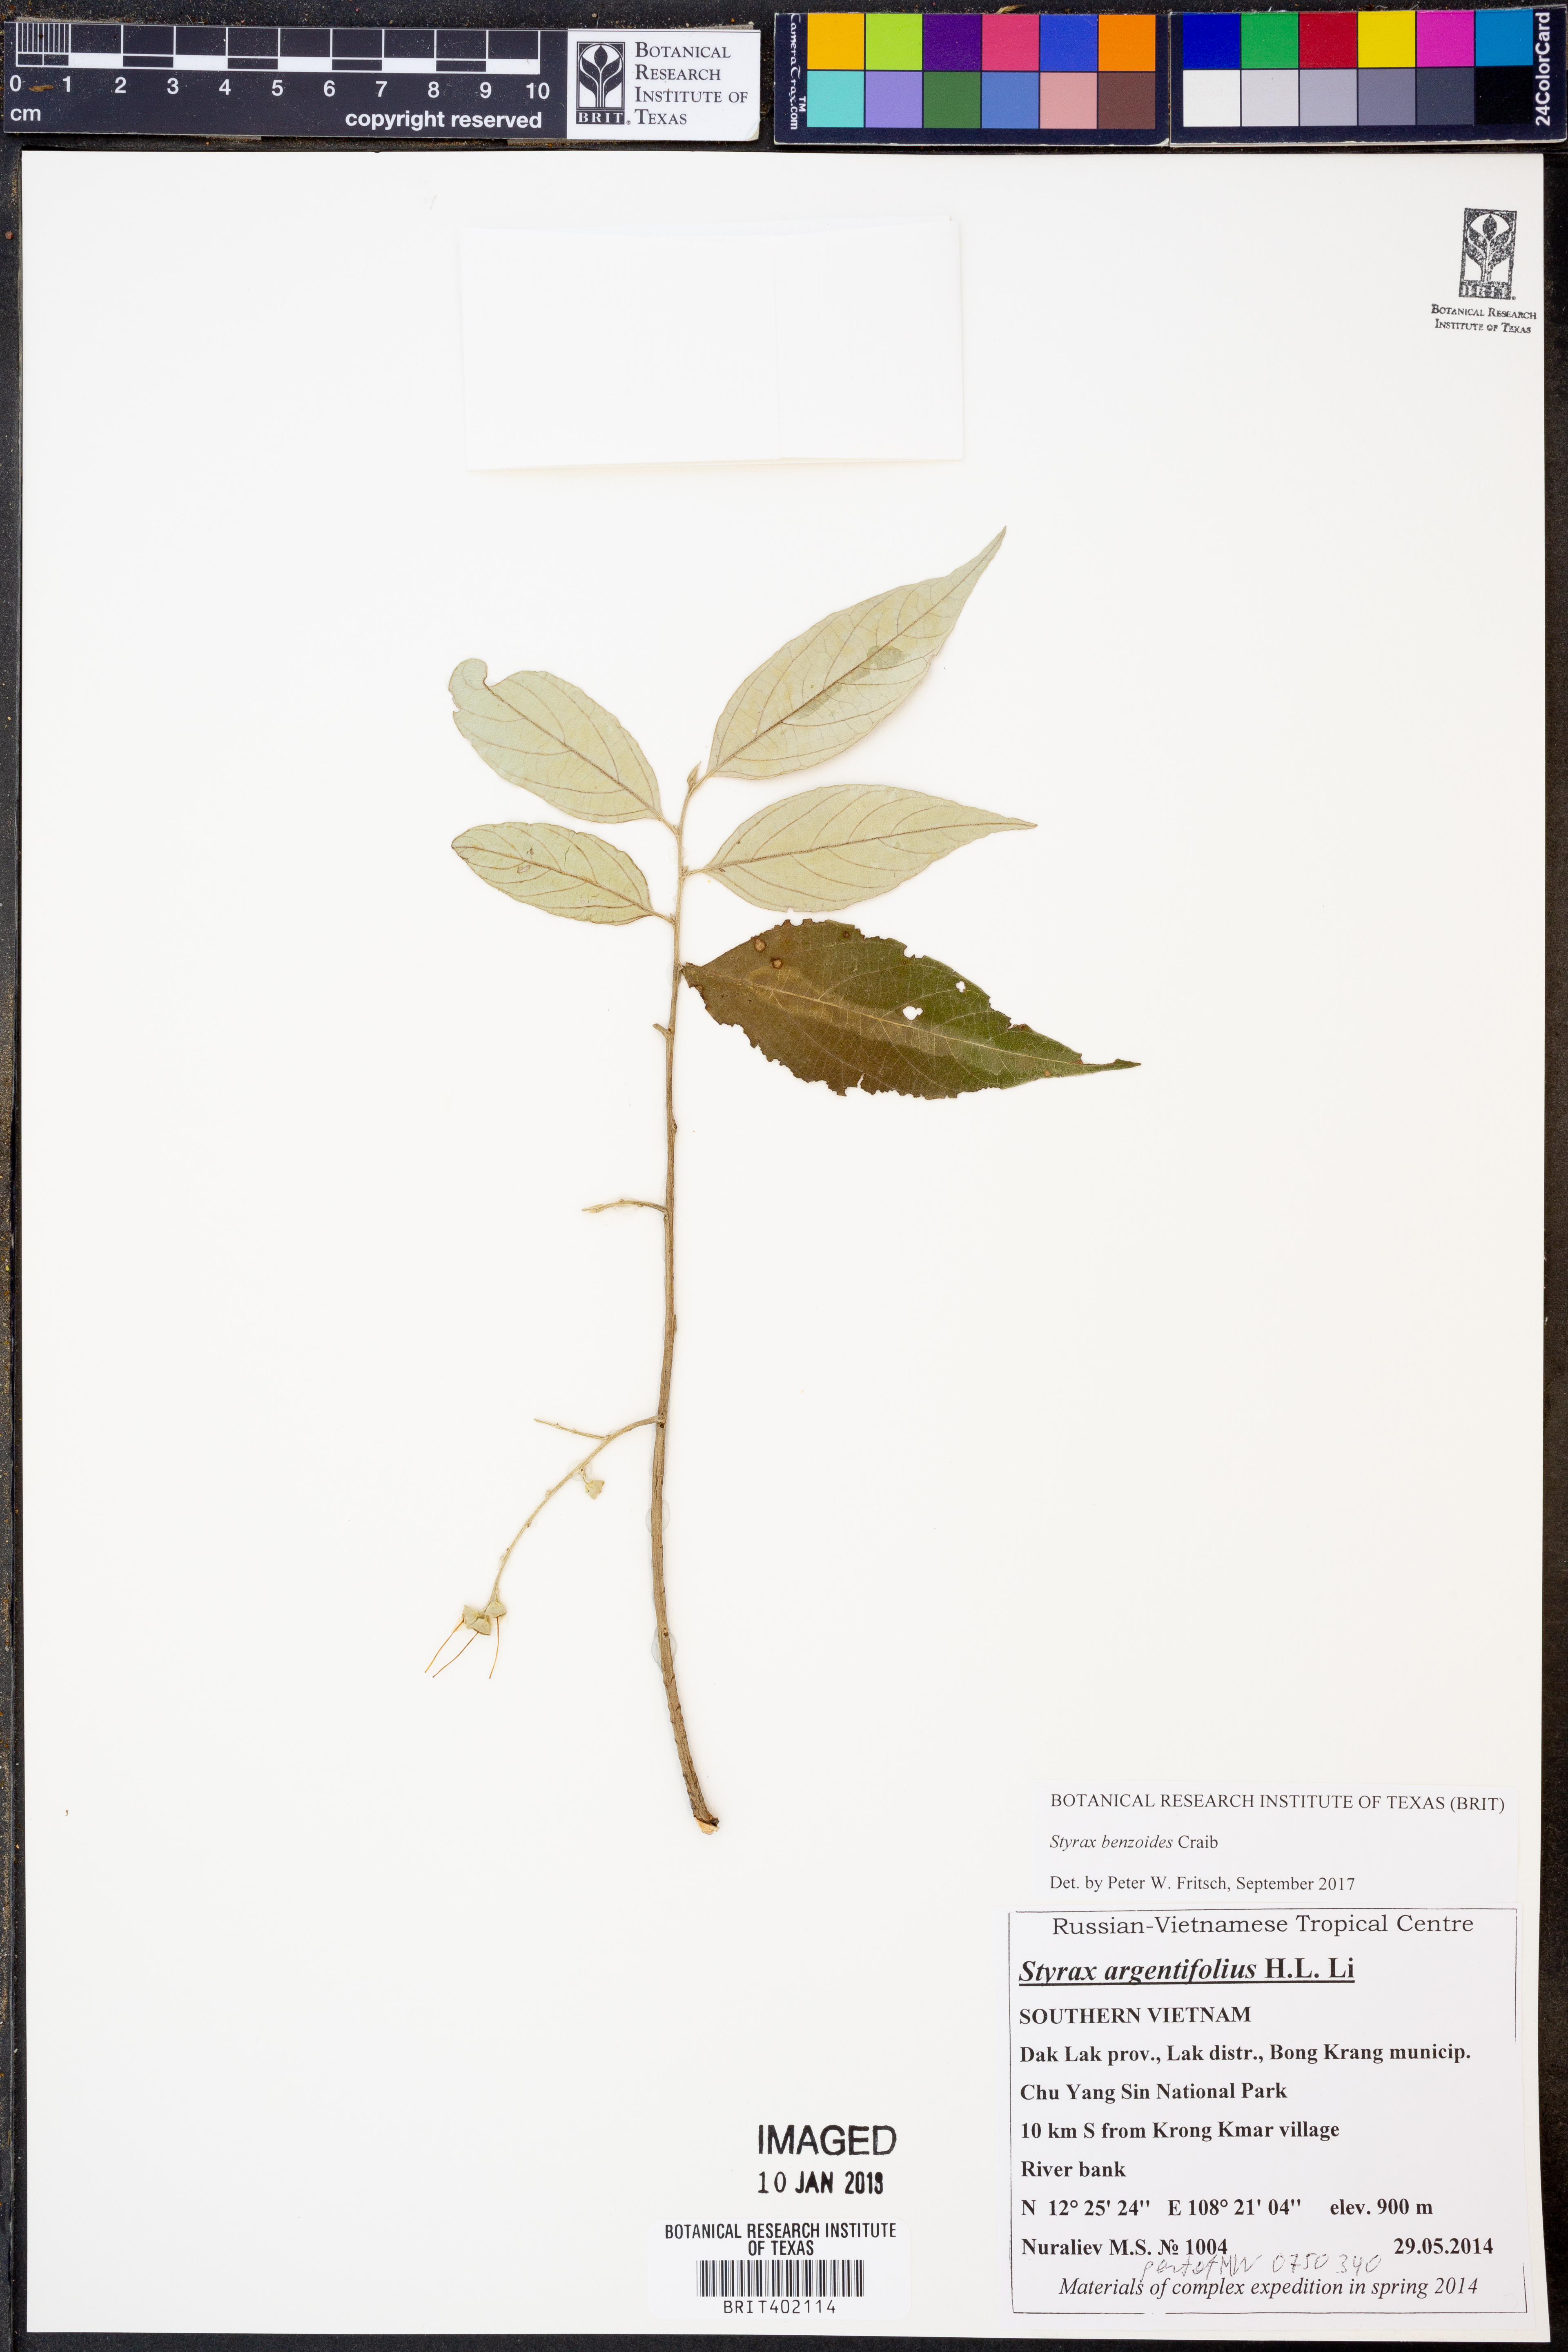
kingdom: Plantae
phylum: Tracheophyta
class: Magnoliopsida
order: Ericales
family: Styracaceae
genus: Styrax
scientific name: Styrax benzoides
